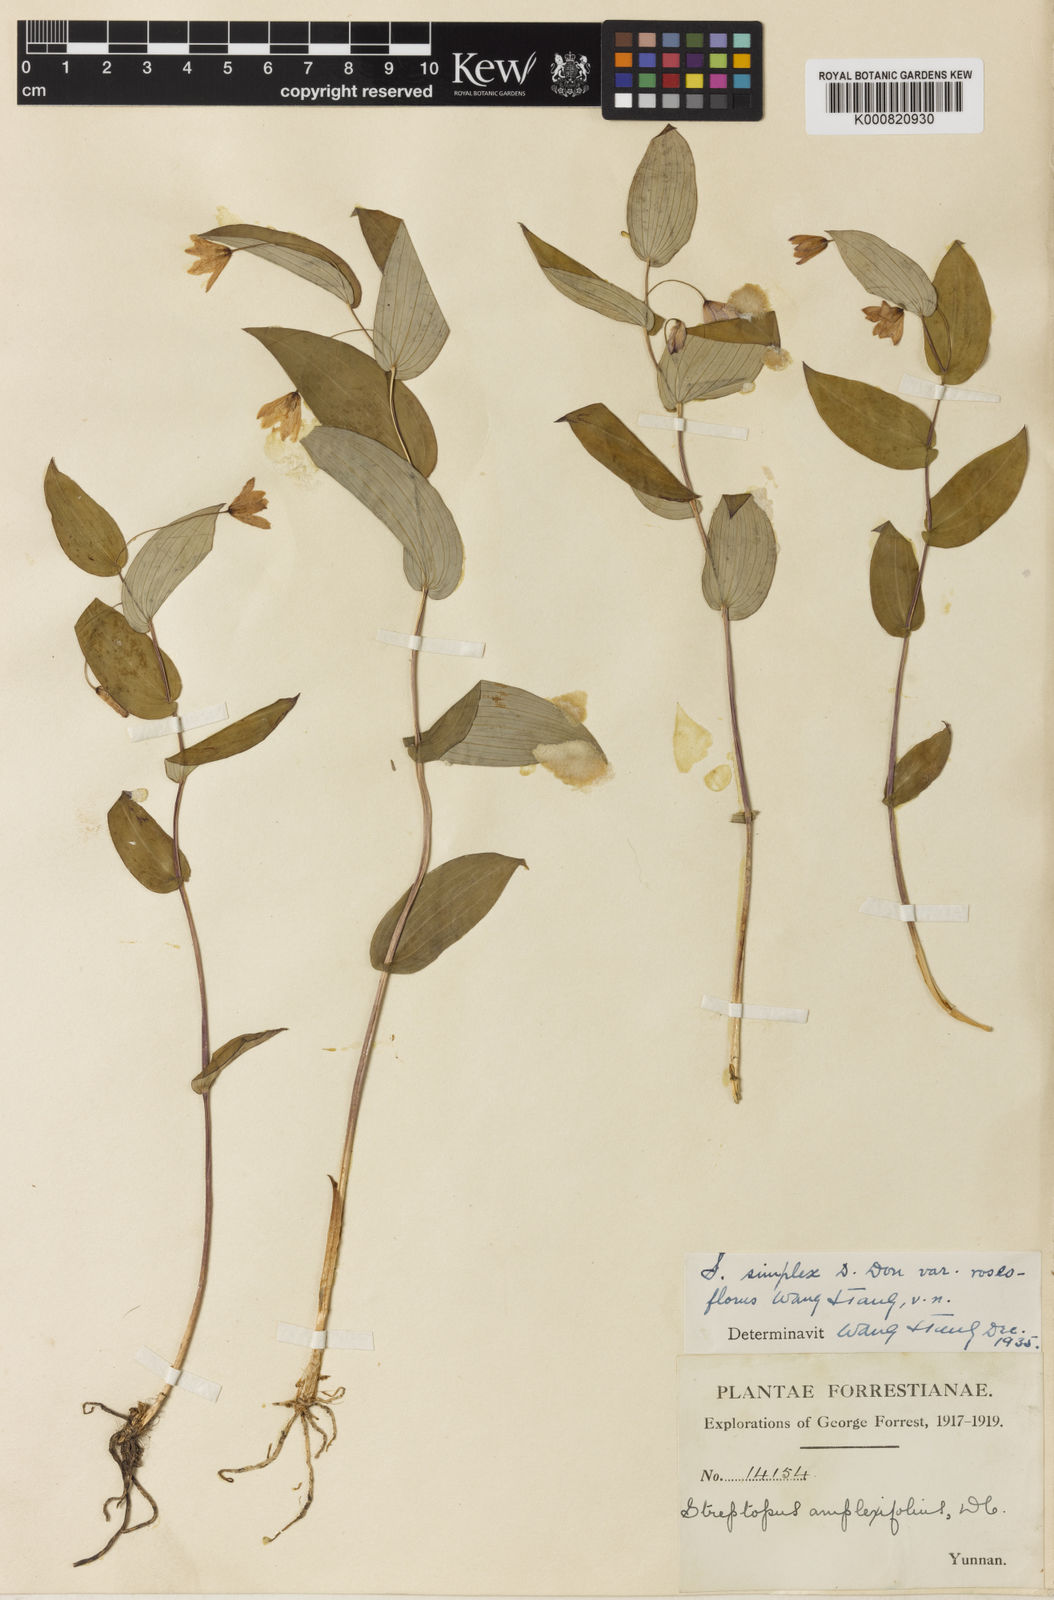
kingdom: Plantae
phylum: Tracheophyta
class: Liliopsida
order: Liliales
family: Liliaceae
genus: Streptopus
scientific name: Streptopus simplex
